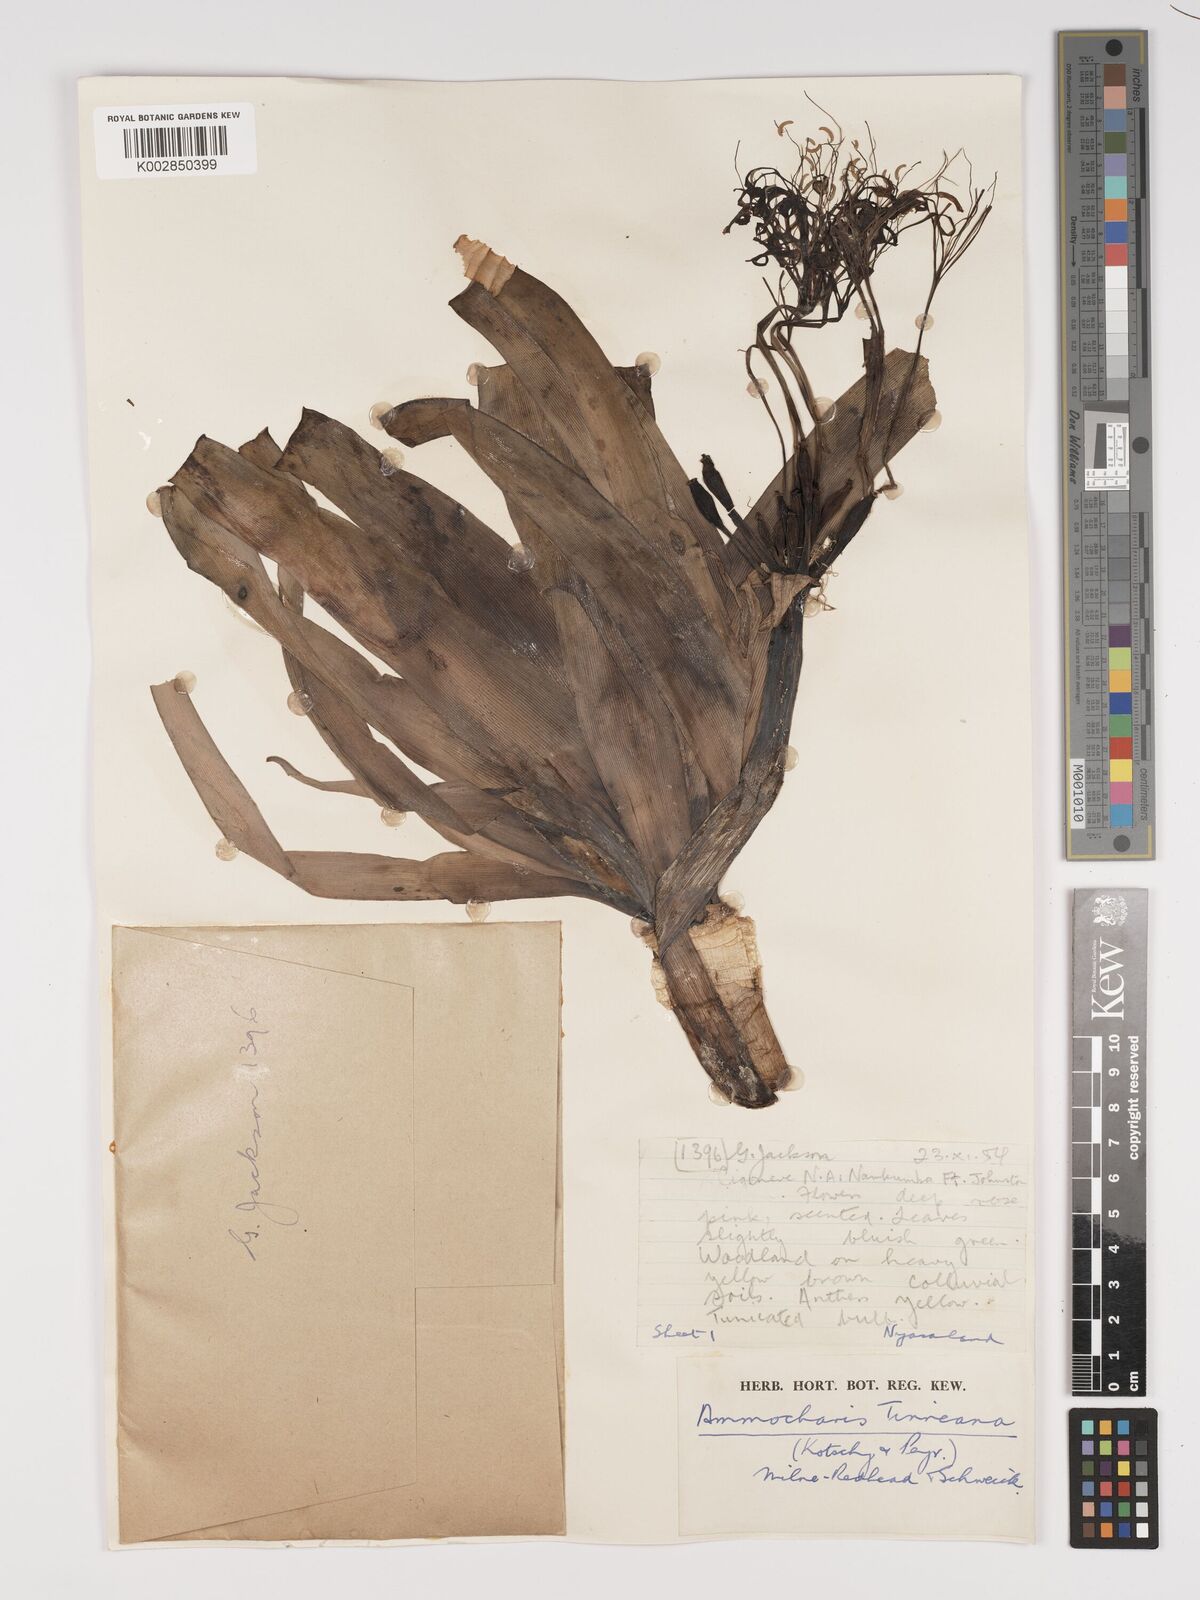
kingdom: Plantae
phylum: Tracheophyta
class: Liliopsida
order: Asparagales
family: Amaryllidaceae
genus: Ammocharis
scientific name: Ammocharis tinneana
